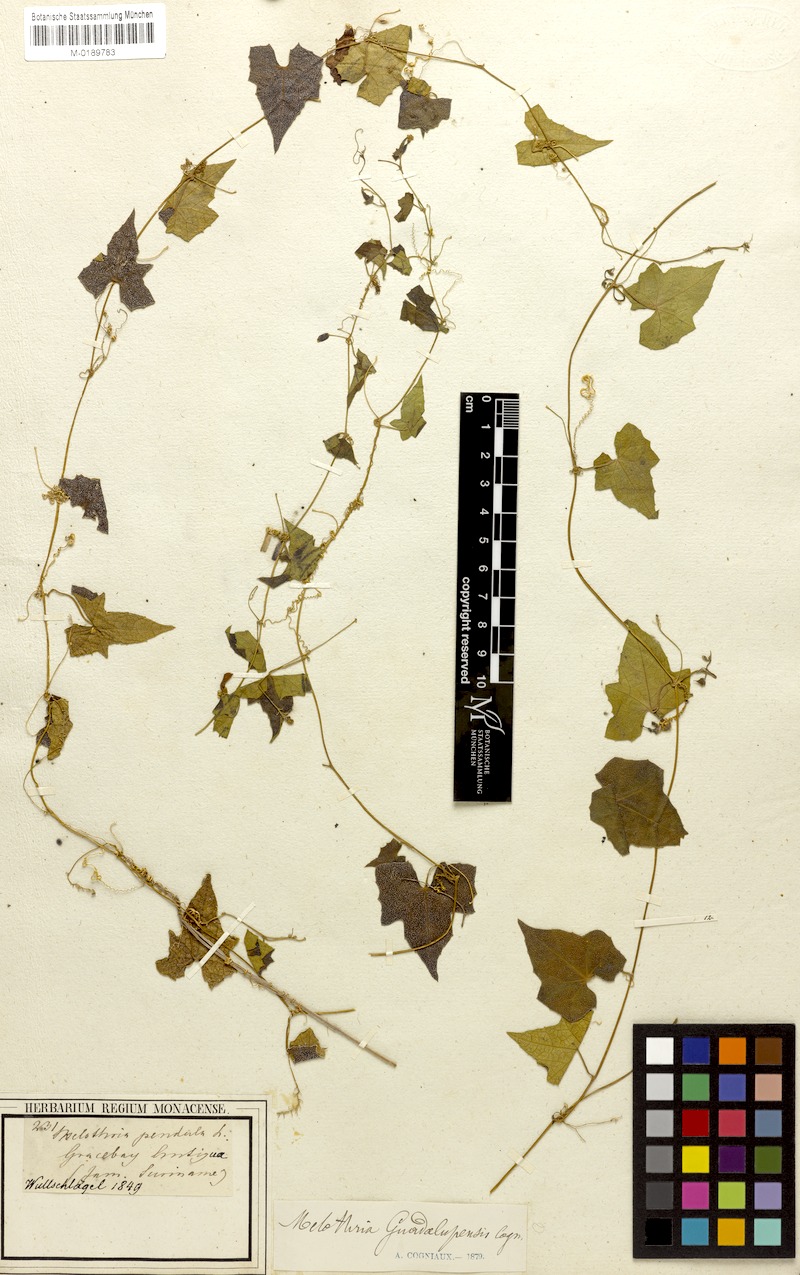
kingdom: Plantae
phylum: Tracheophyta
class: Magnoliopsida
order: Cucurbitales
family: Cucurbitaceae
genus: Melothria
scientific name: Melothria pendula
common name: Creeping-cucumber
